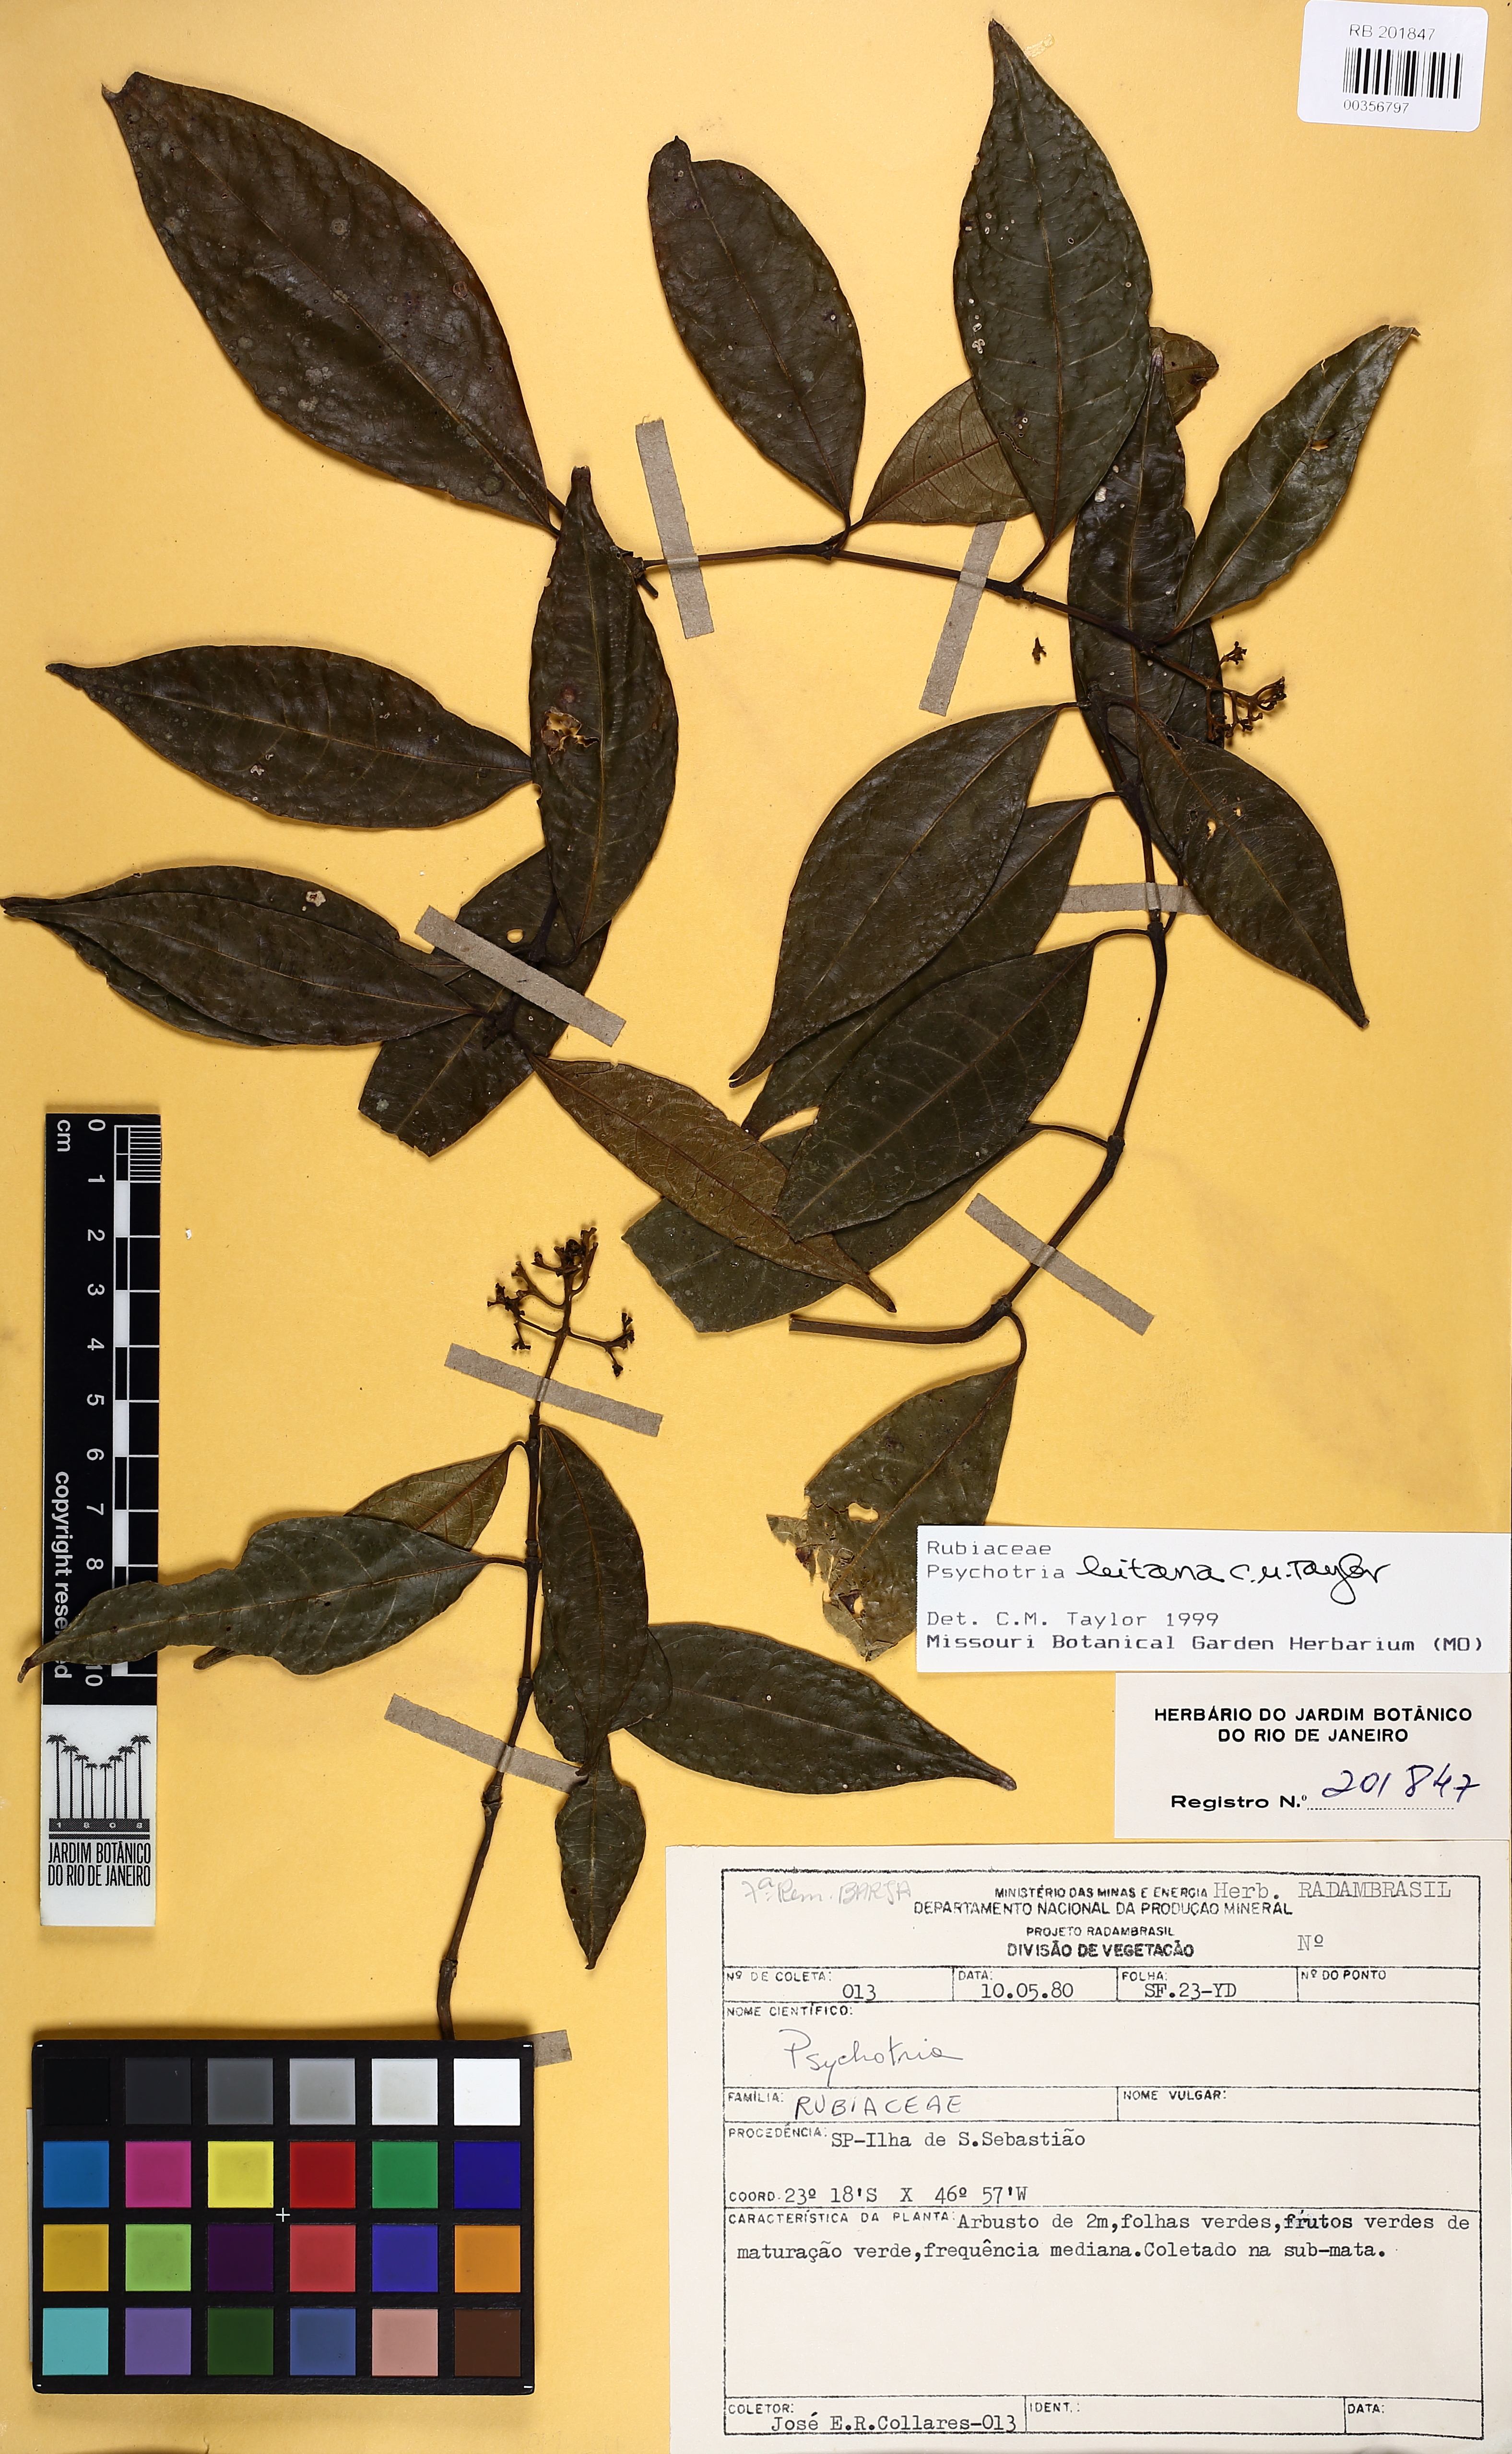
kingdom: Plantae
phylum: Tracheophyta
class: Magnoliopsida
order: Gentianales
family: Rubiaceae
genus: Psychotria
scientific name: Psychotria leitana
